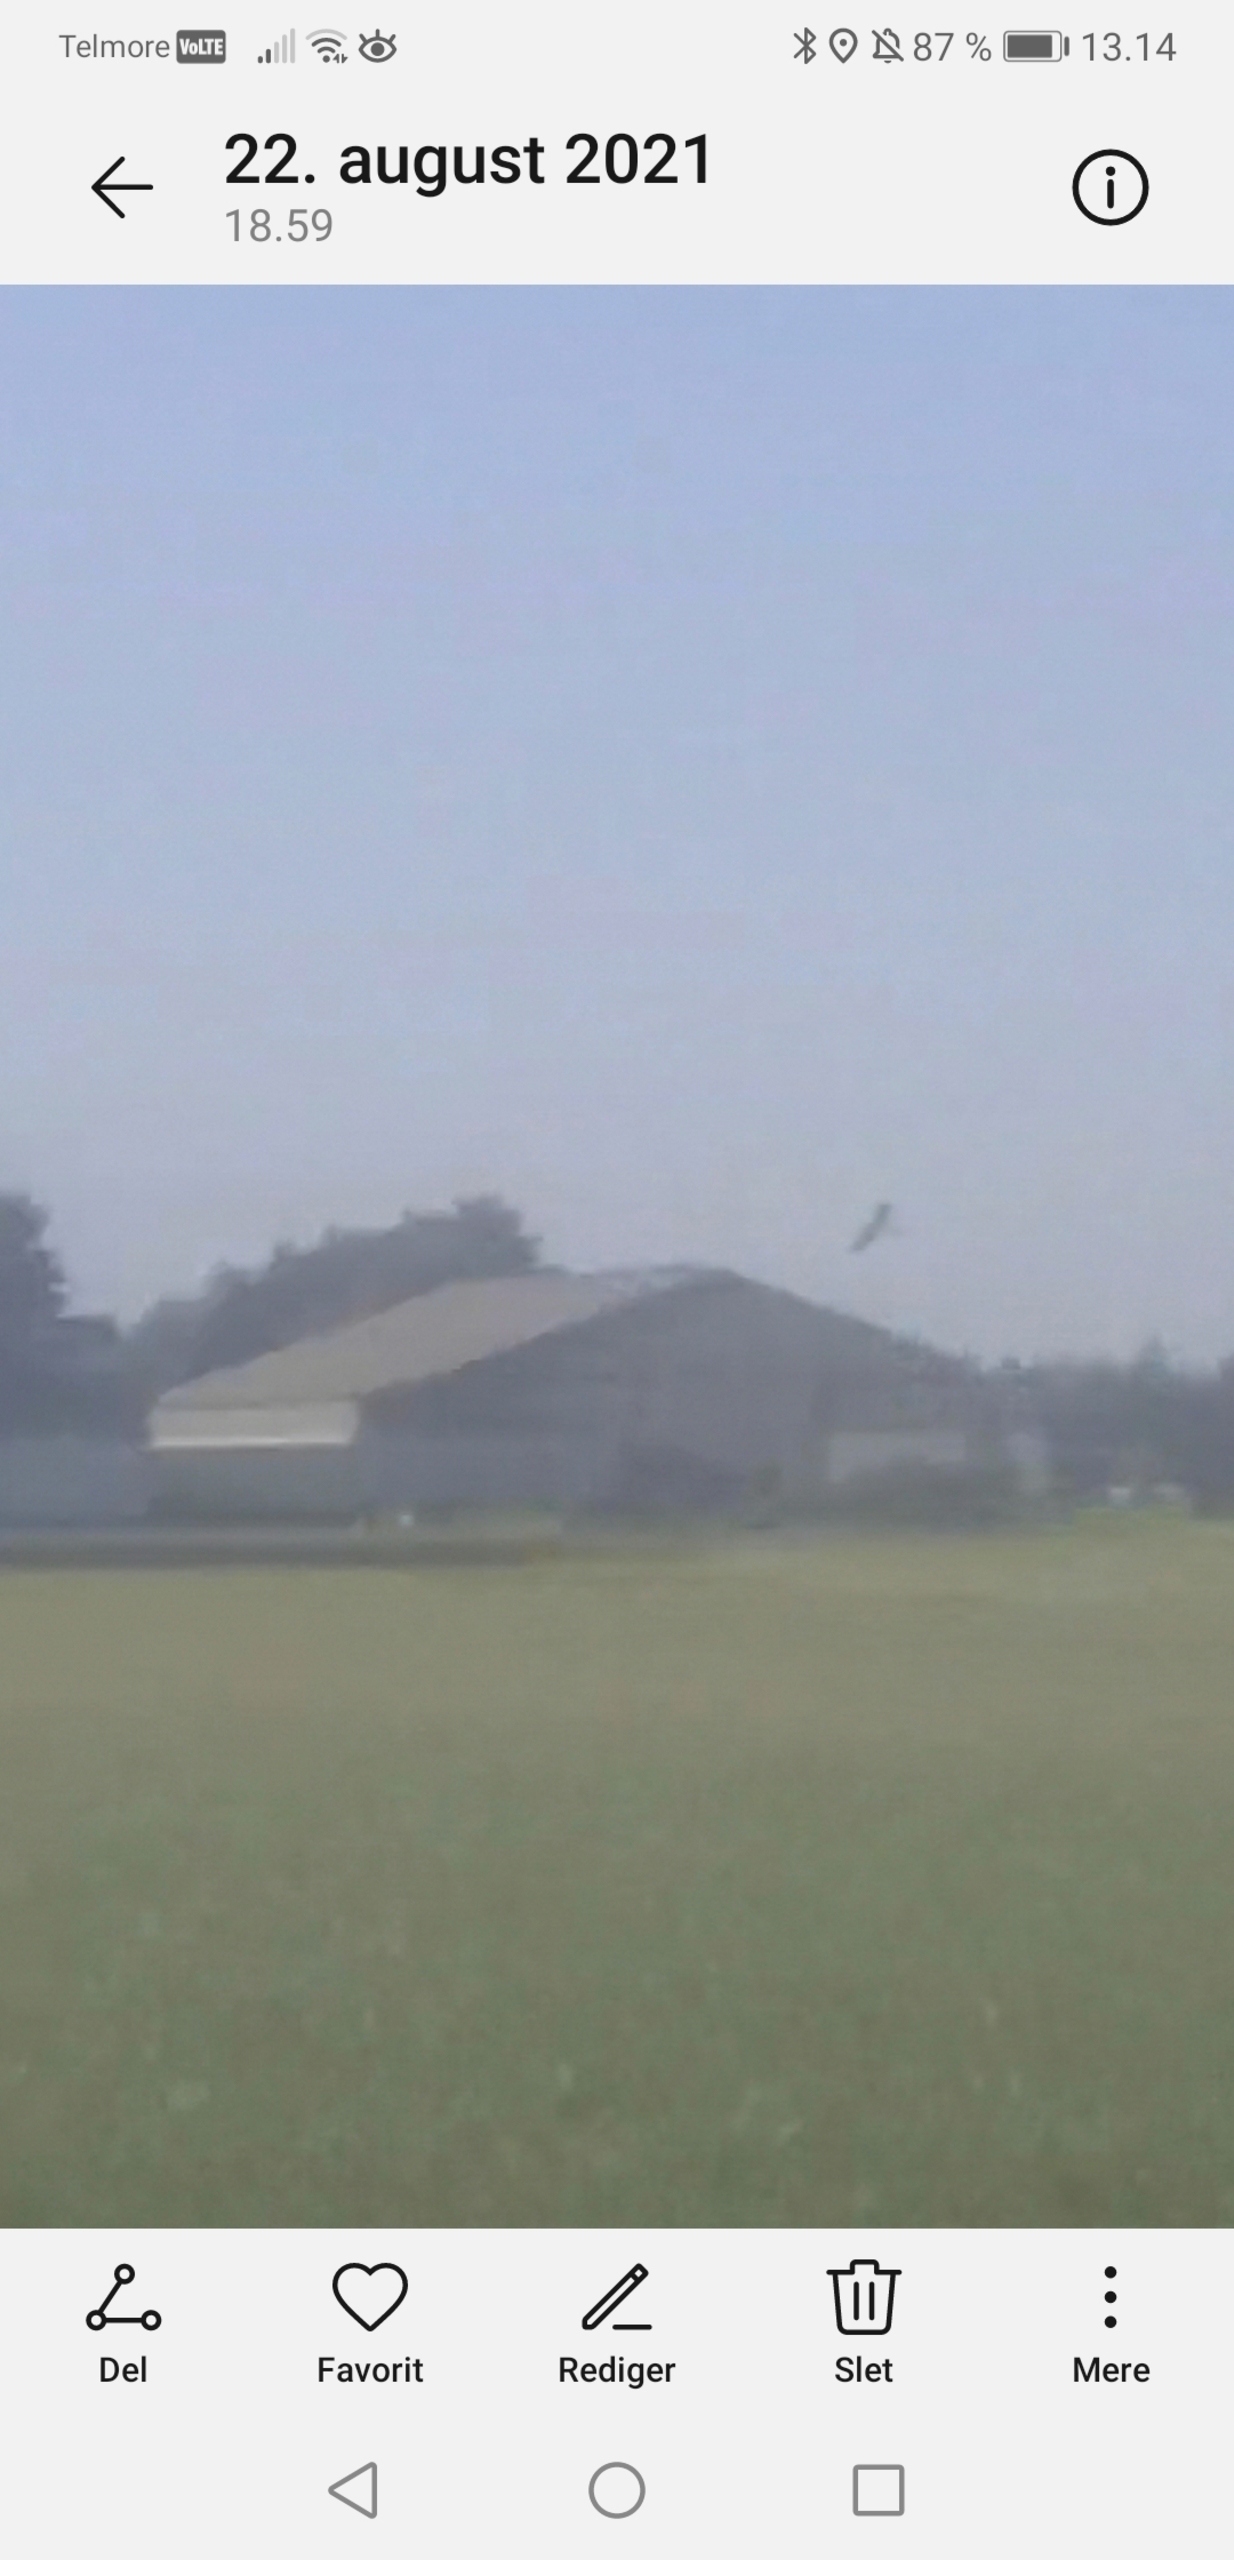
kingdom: Animalia
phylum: Chordata
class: Aves
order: Accipitriformes
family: Accipitridae
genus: Haliaeetus
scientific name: Haliaeetus albicilla
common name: Havørn
